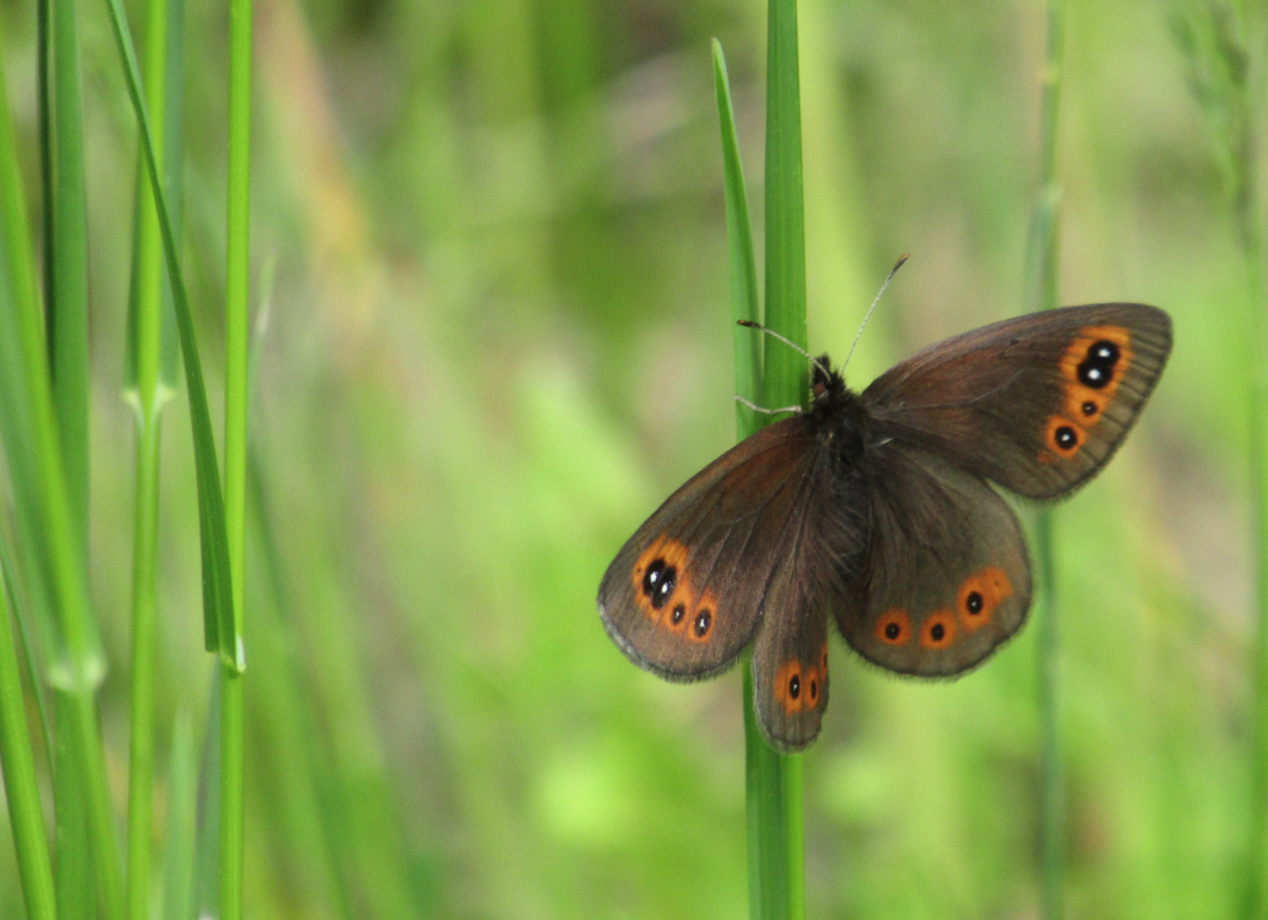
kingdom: Animalia
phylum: Arthropoda
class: Insecta
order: Lepidoptera
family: Nymphalidae
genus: Erebia
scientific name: Erebia epipsodea
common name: Common Alpine
